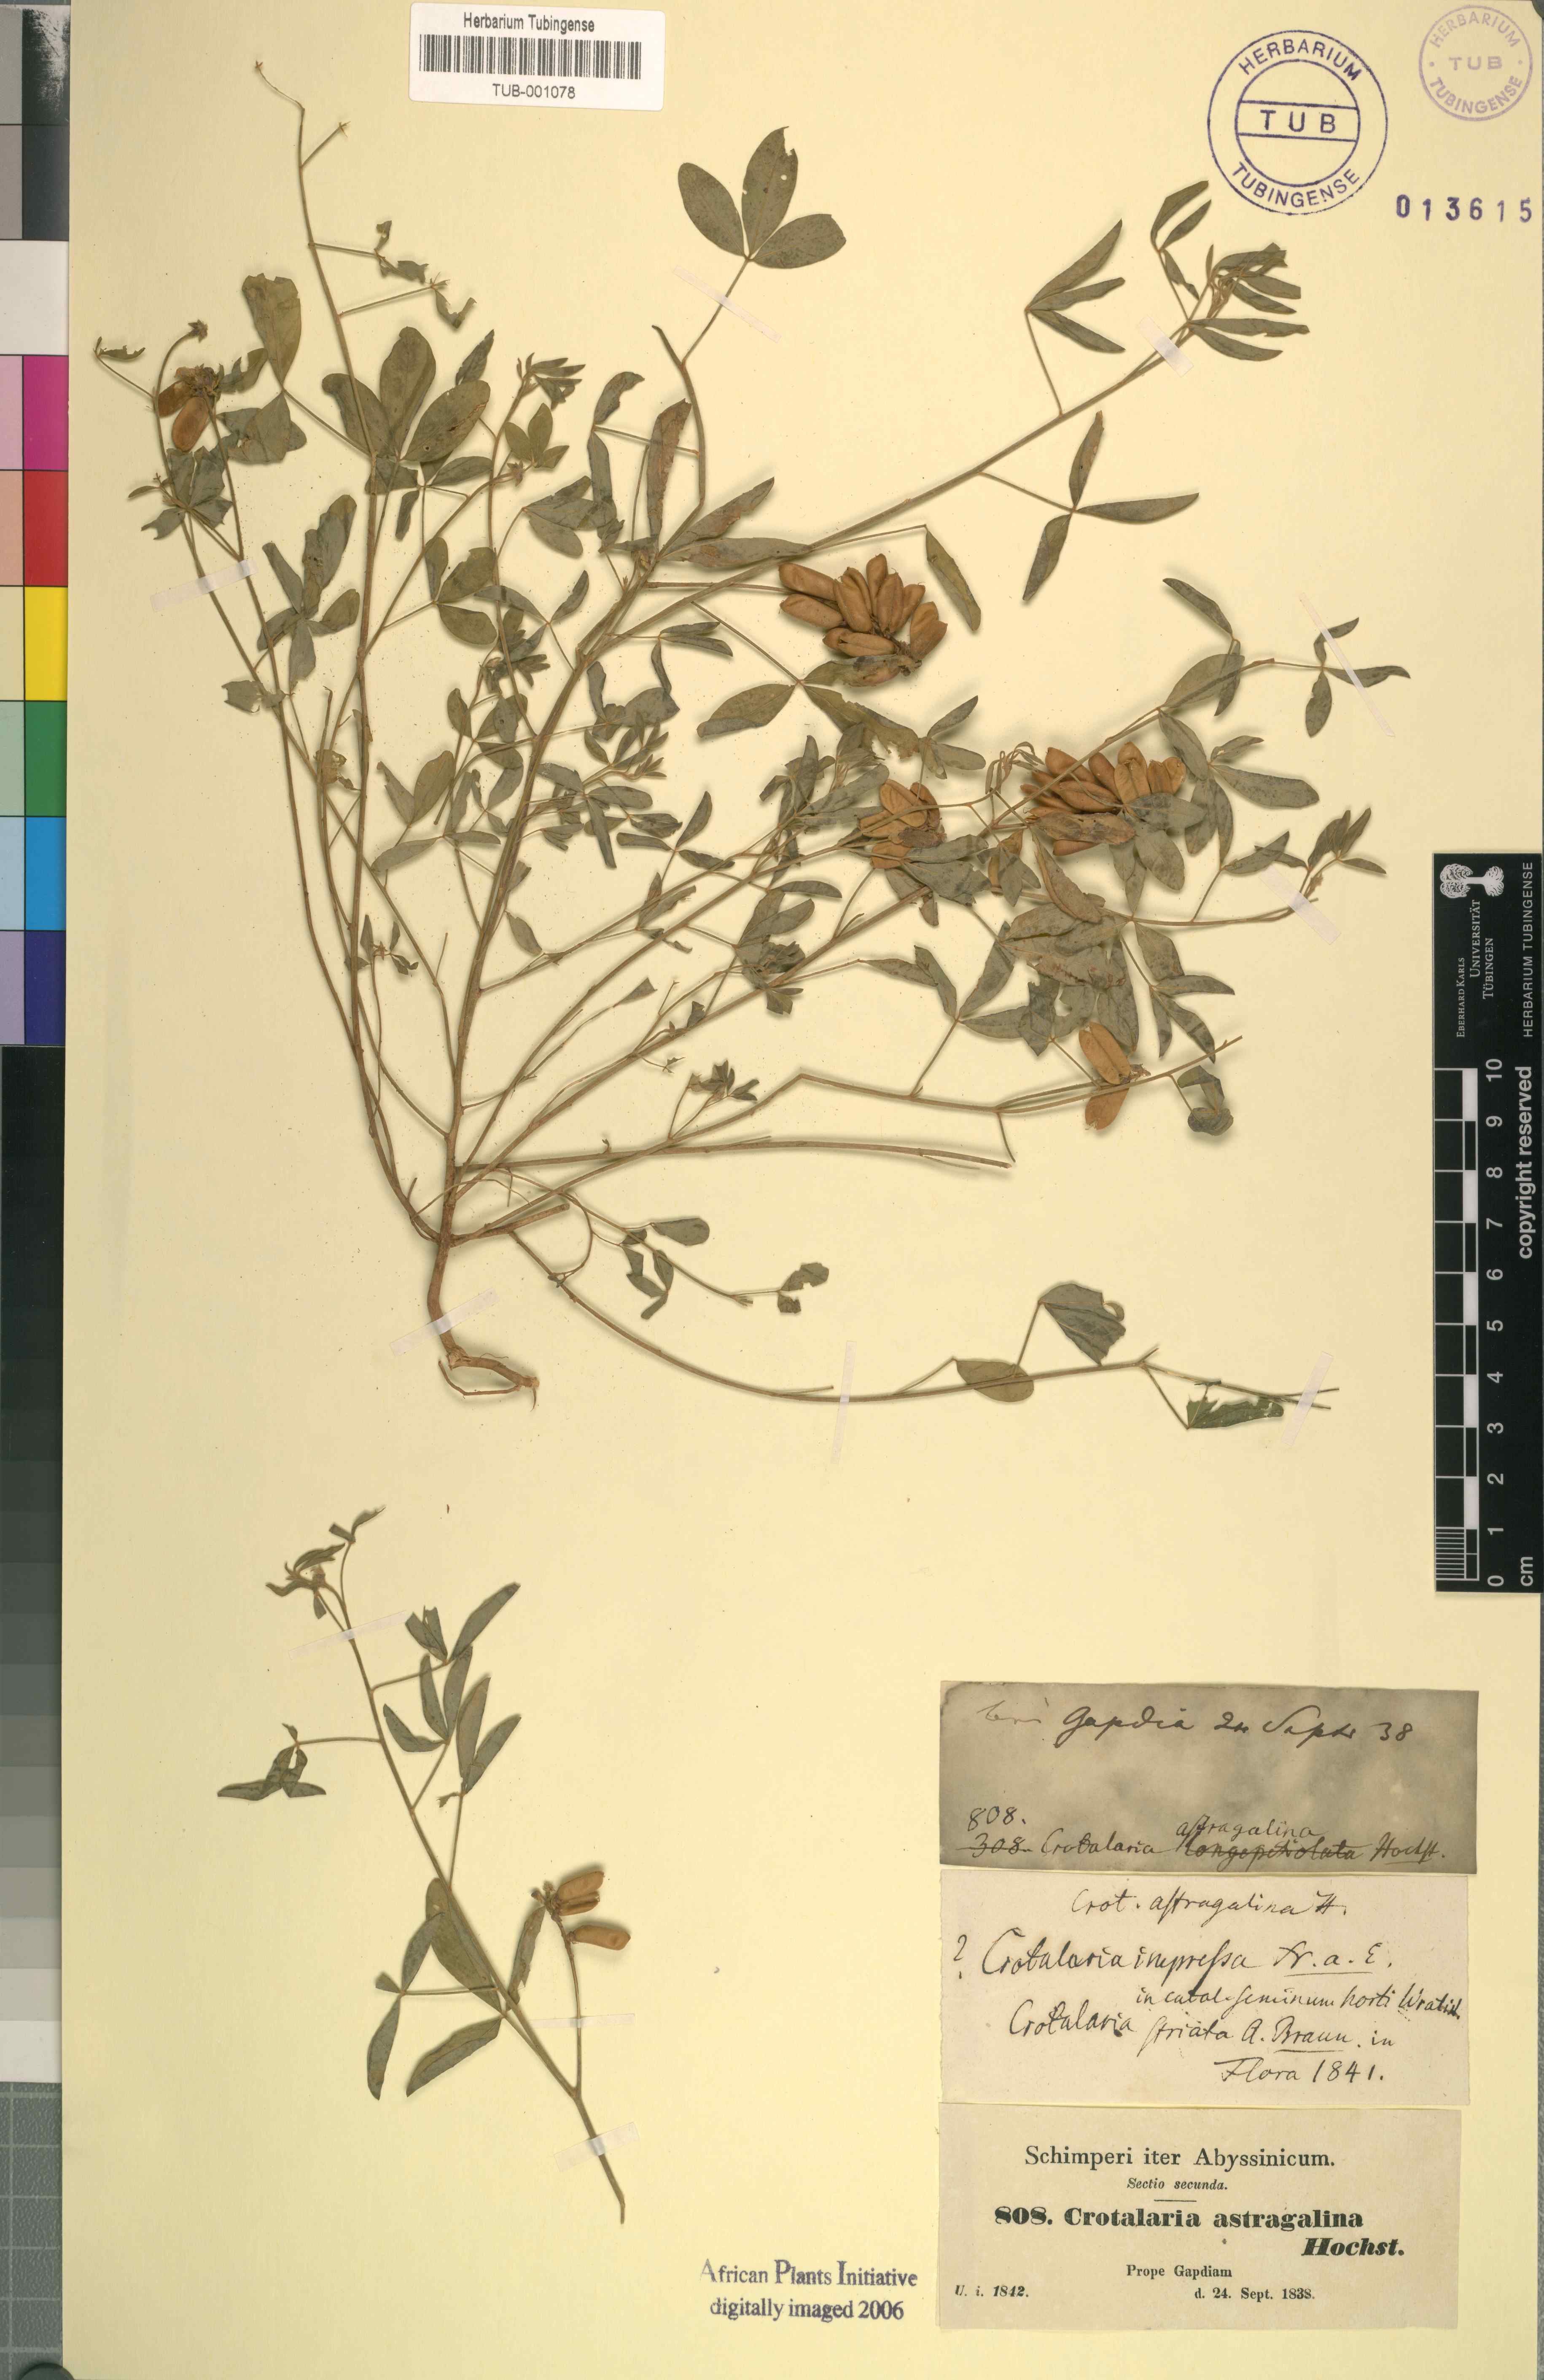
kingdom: Plantae
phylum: Tracheophyta
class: Magnoliopsida
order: Fabales
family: Fabaceae
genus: Crotalaria
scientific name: Crotalaria impressa
